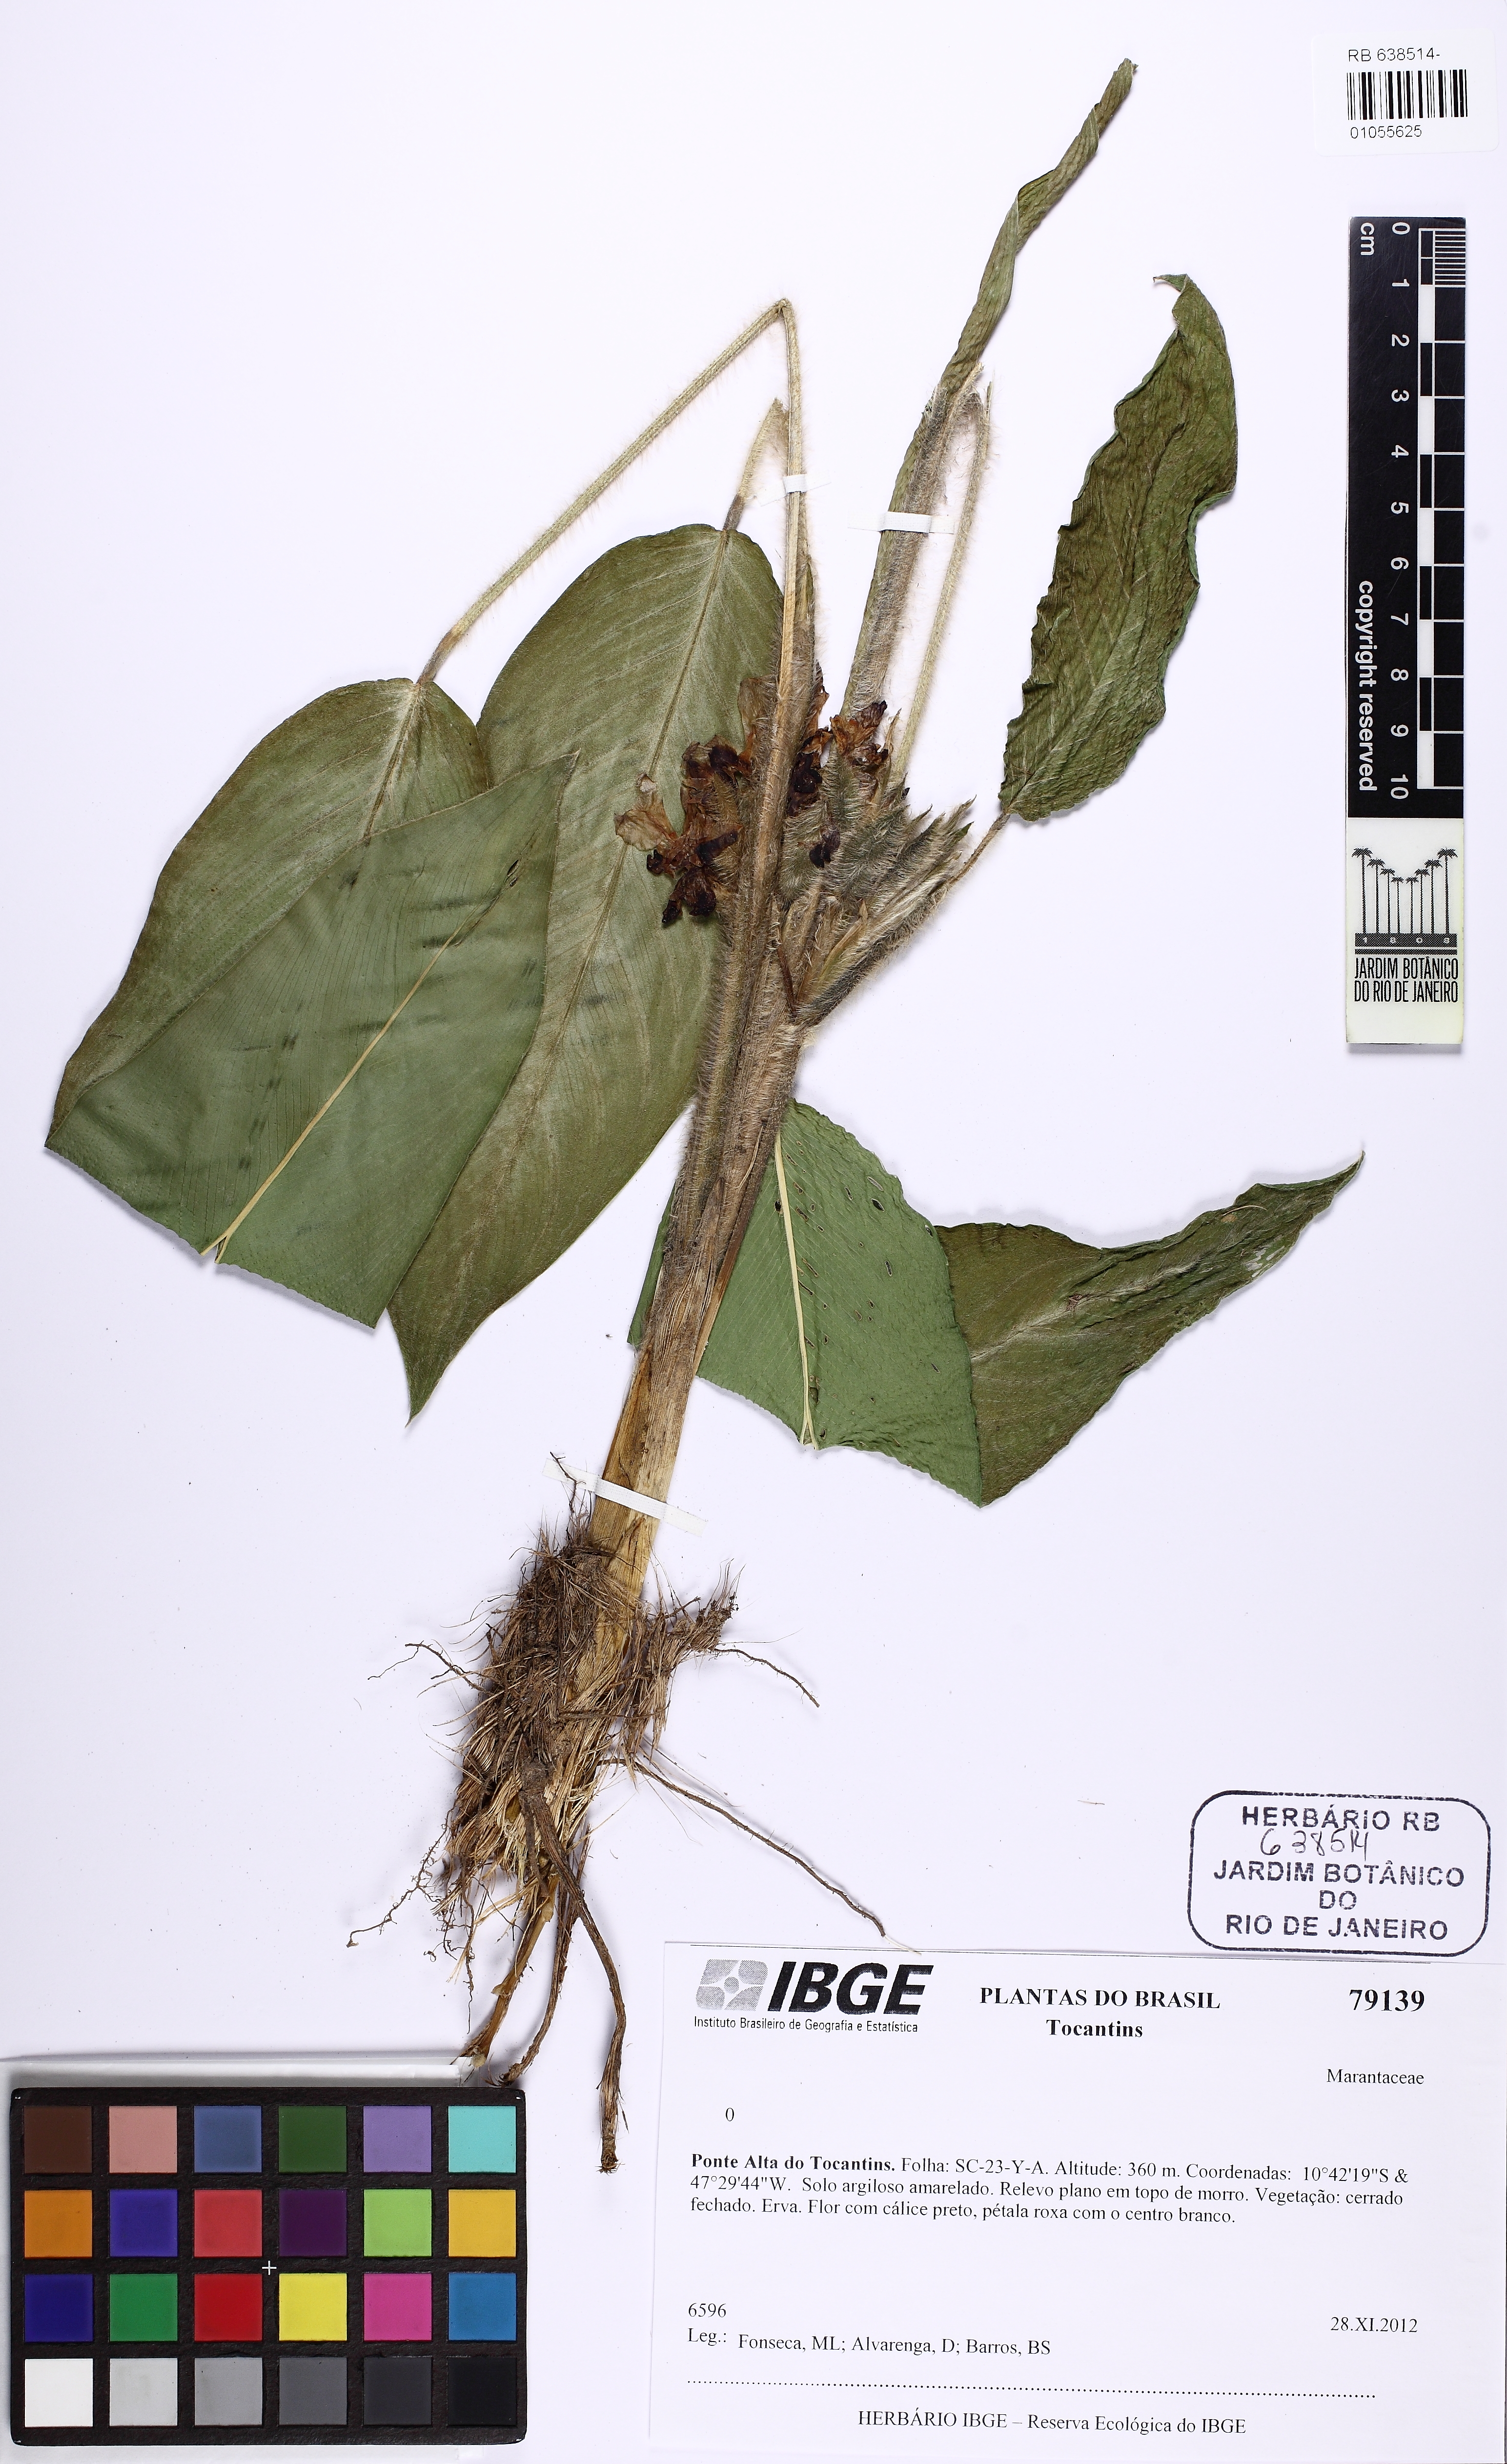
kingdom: Plantae
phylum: Tracheophyta
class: Liliopsida
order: Zingiberales
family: Marantaceae
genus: Maranta
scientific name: Maranta polystachya
